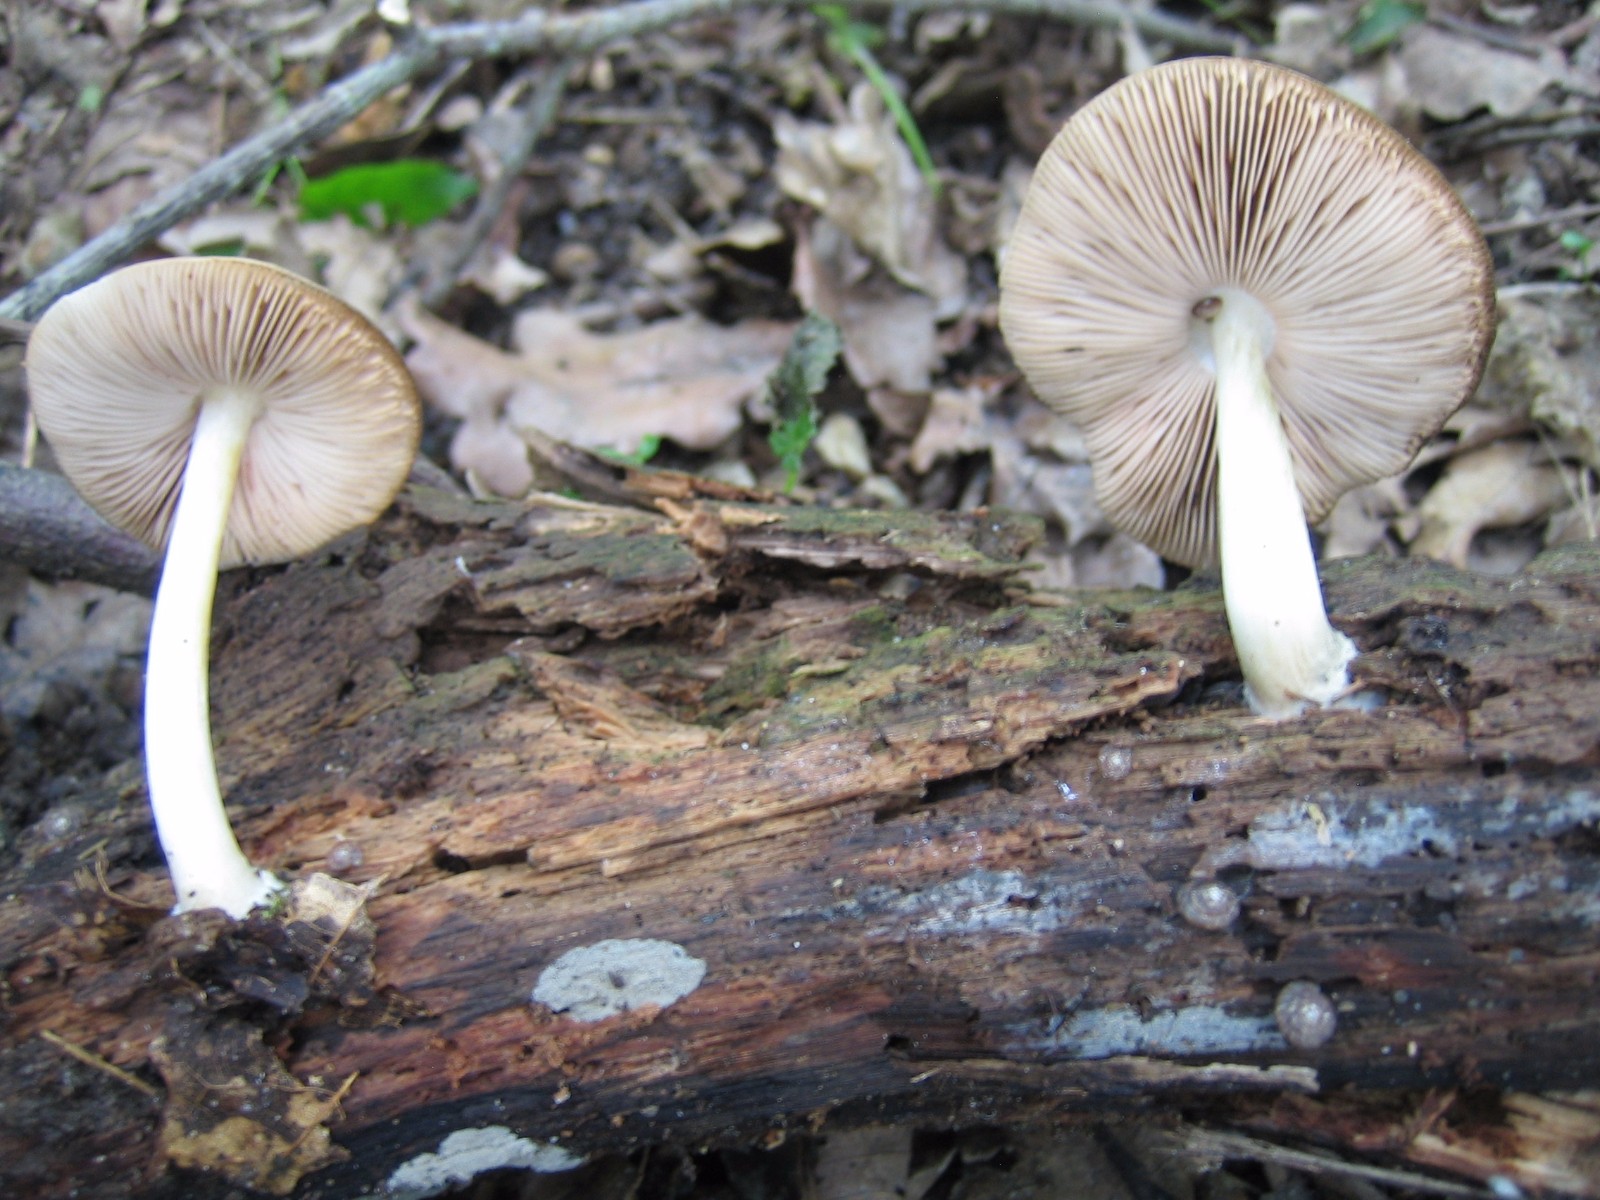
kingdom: Fungi
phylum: Basidiomycota
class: Agaricomycetes
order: Agaricales
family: Pluteaceae
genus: Pluteus
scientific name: Pluteus salicinus
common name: stiv skærmhat
